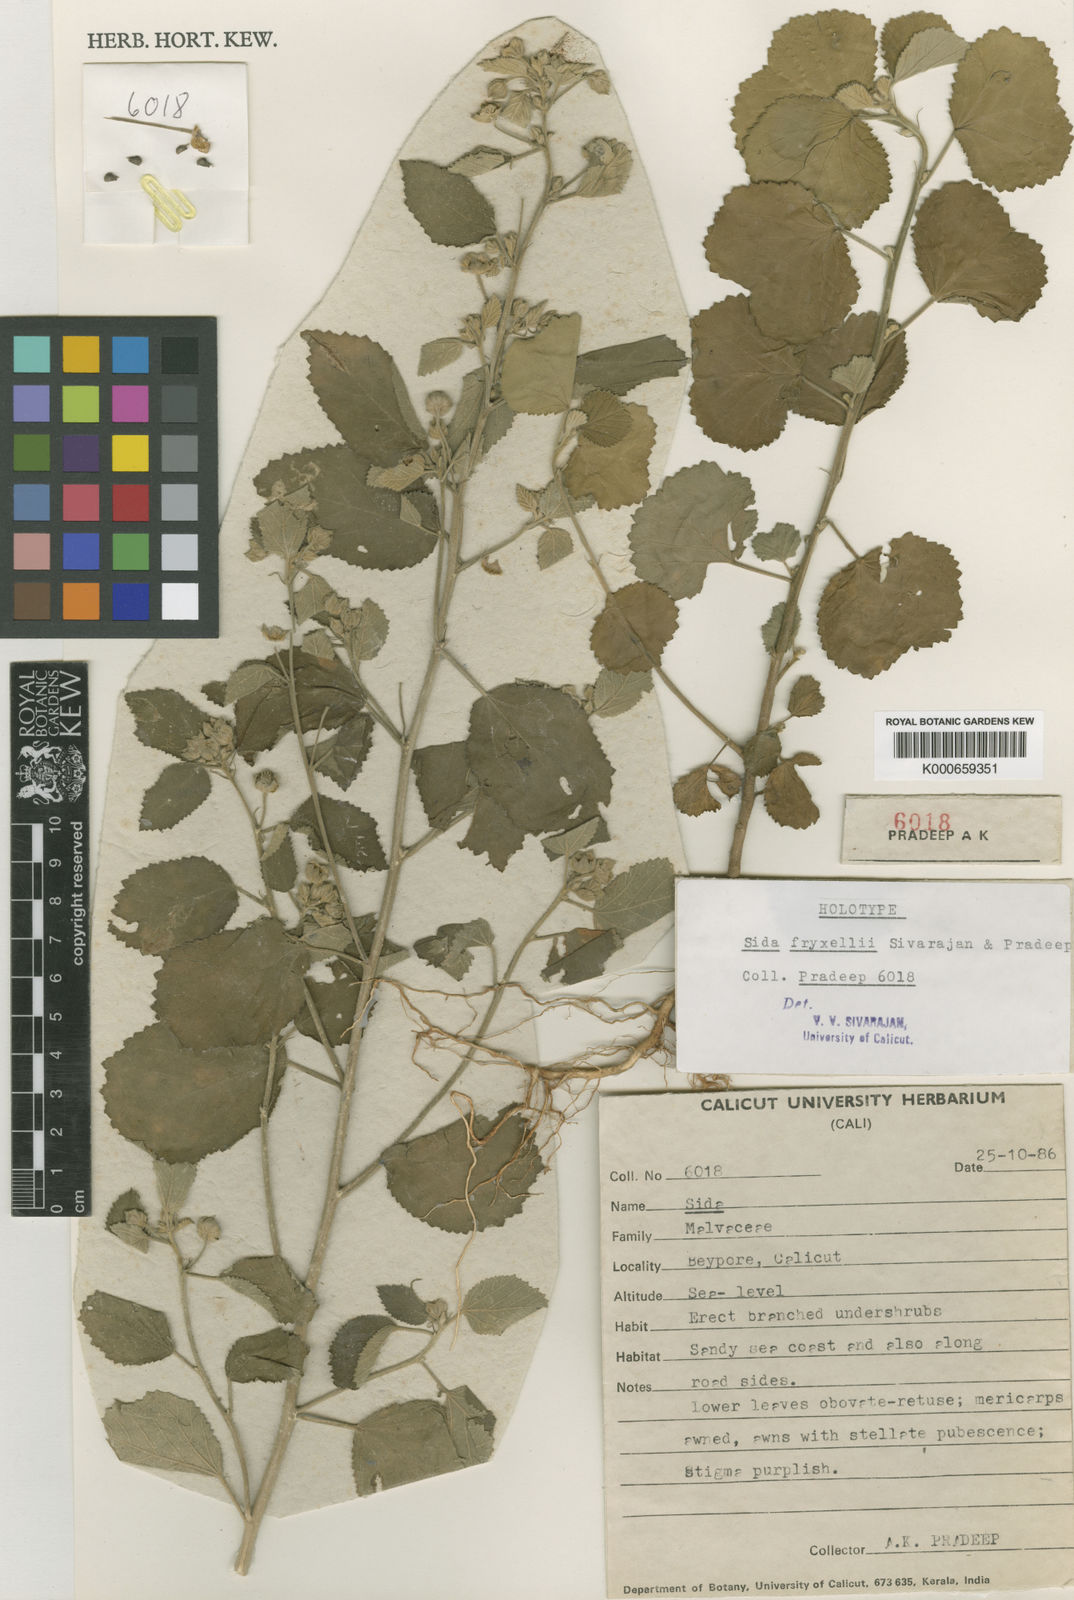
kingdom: Plantae
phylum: Tracheophyta
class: Magnoliopsida
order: Malvales
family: Malvaceae
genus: Sida
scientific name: Sida rhombifolia
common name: Queensland-hemp
